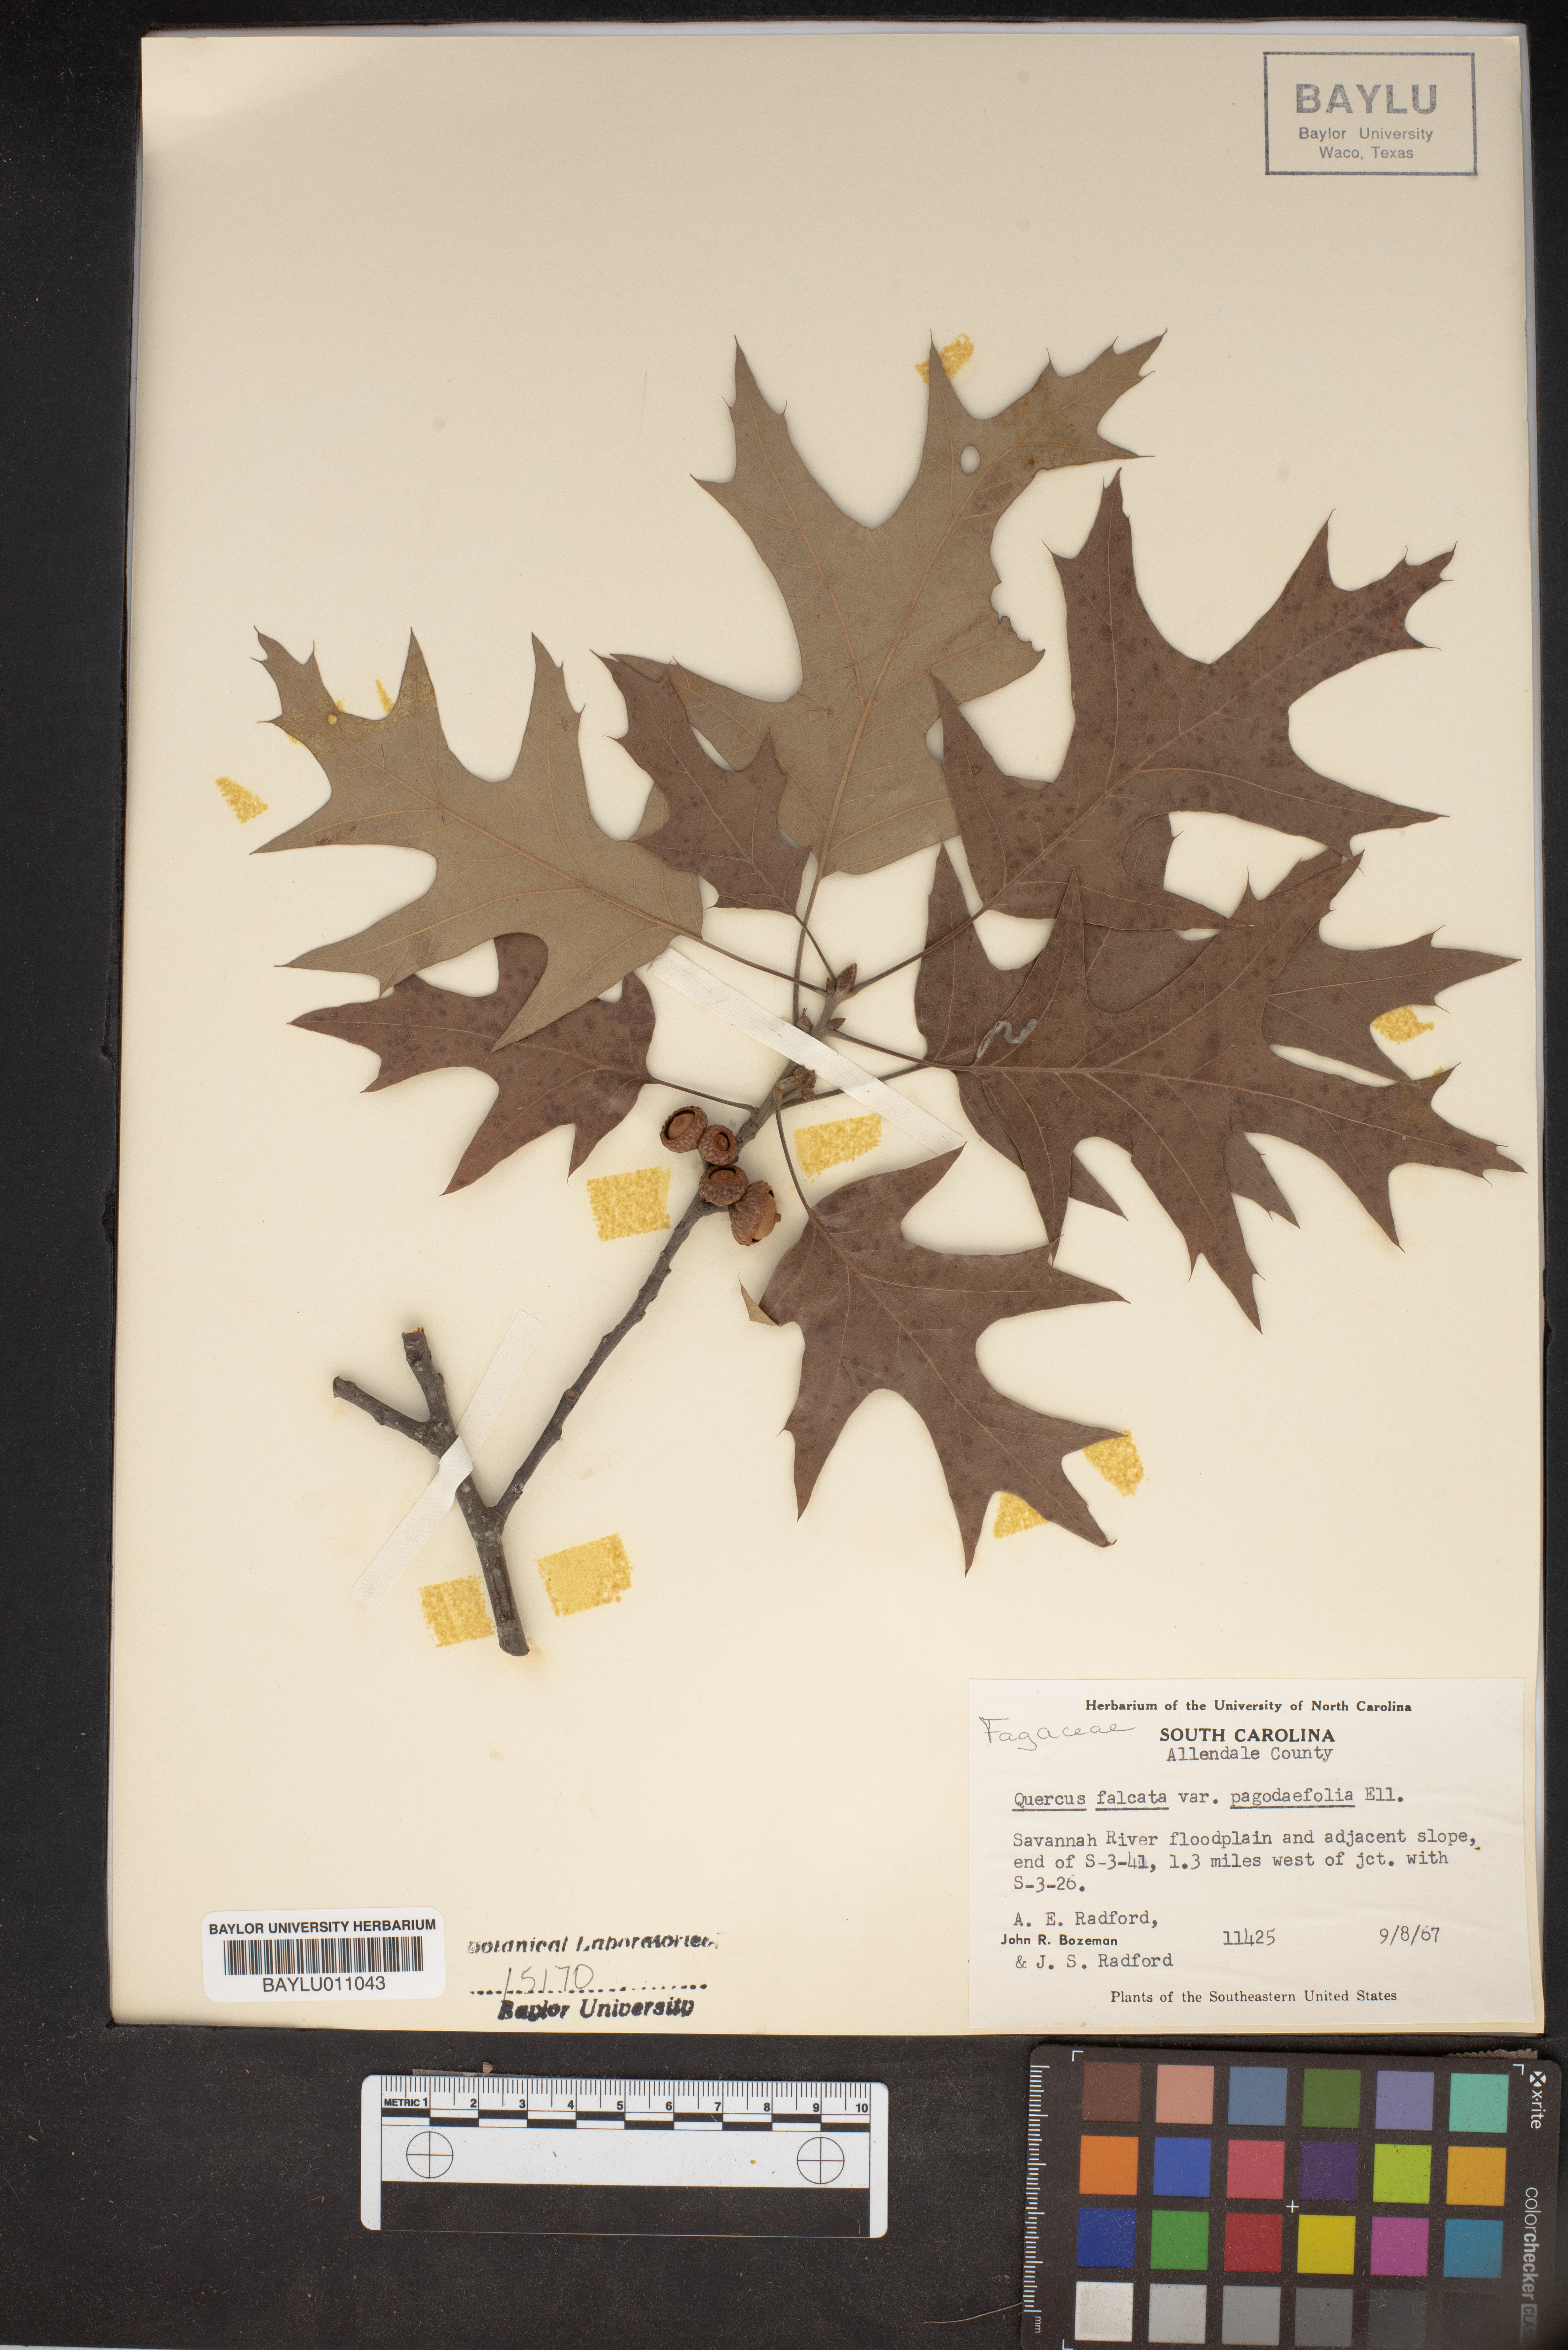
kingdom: Plantae
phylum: Tracheophyta
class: Magnoliopsida
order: Fagales
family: Fagaceae
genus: Quercus
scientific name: Quercus pagoda
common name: Cherrybark oak
